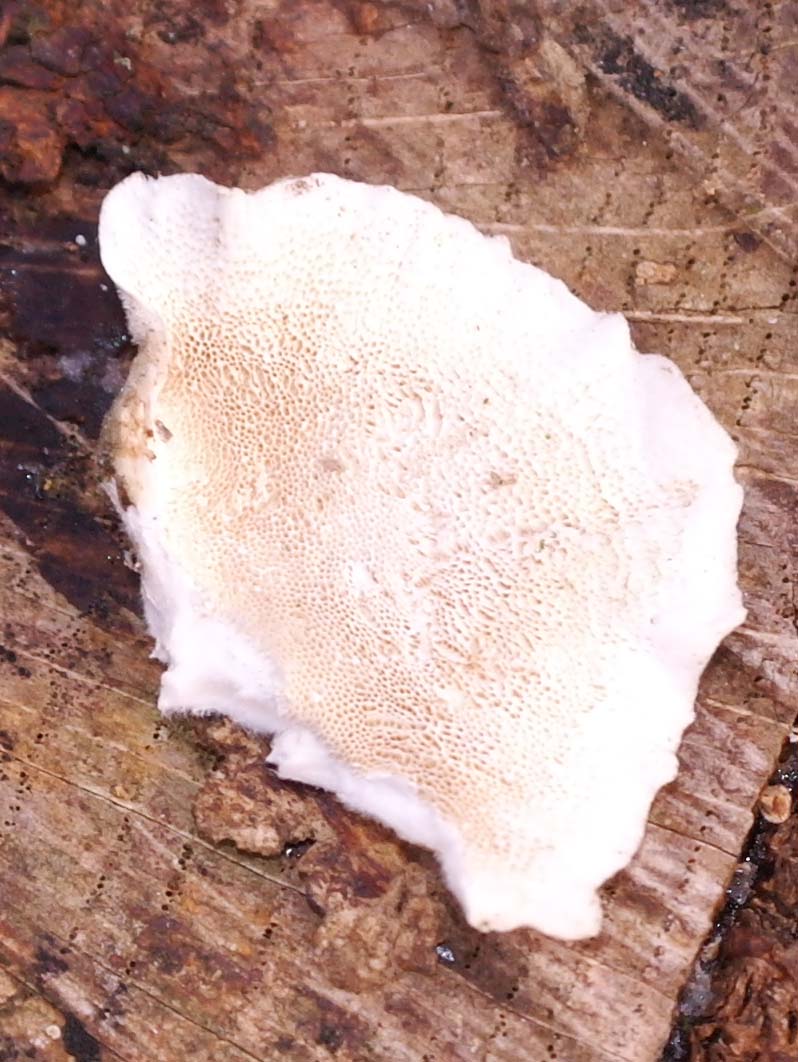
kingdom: Fungi
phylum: Basidiomycota
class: Agaricomycetes
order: Polyporales
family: Polyporaceae
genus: Trametes
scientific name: Trametes versicolor
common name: broget læderporesvamp
